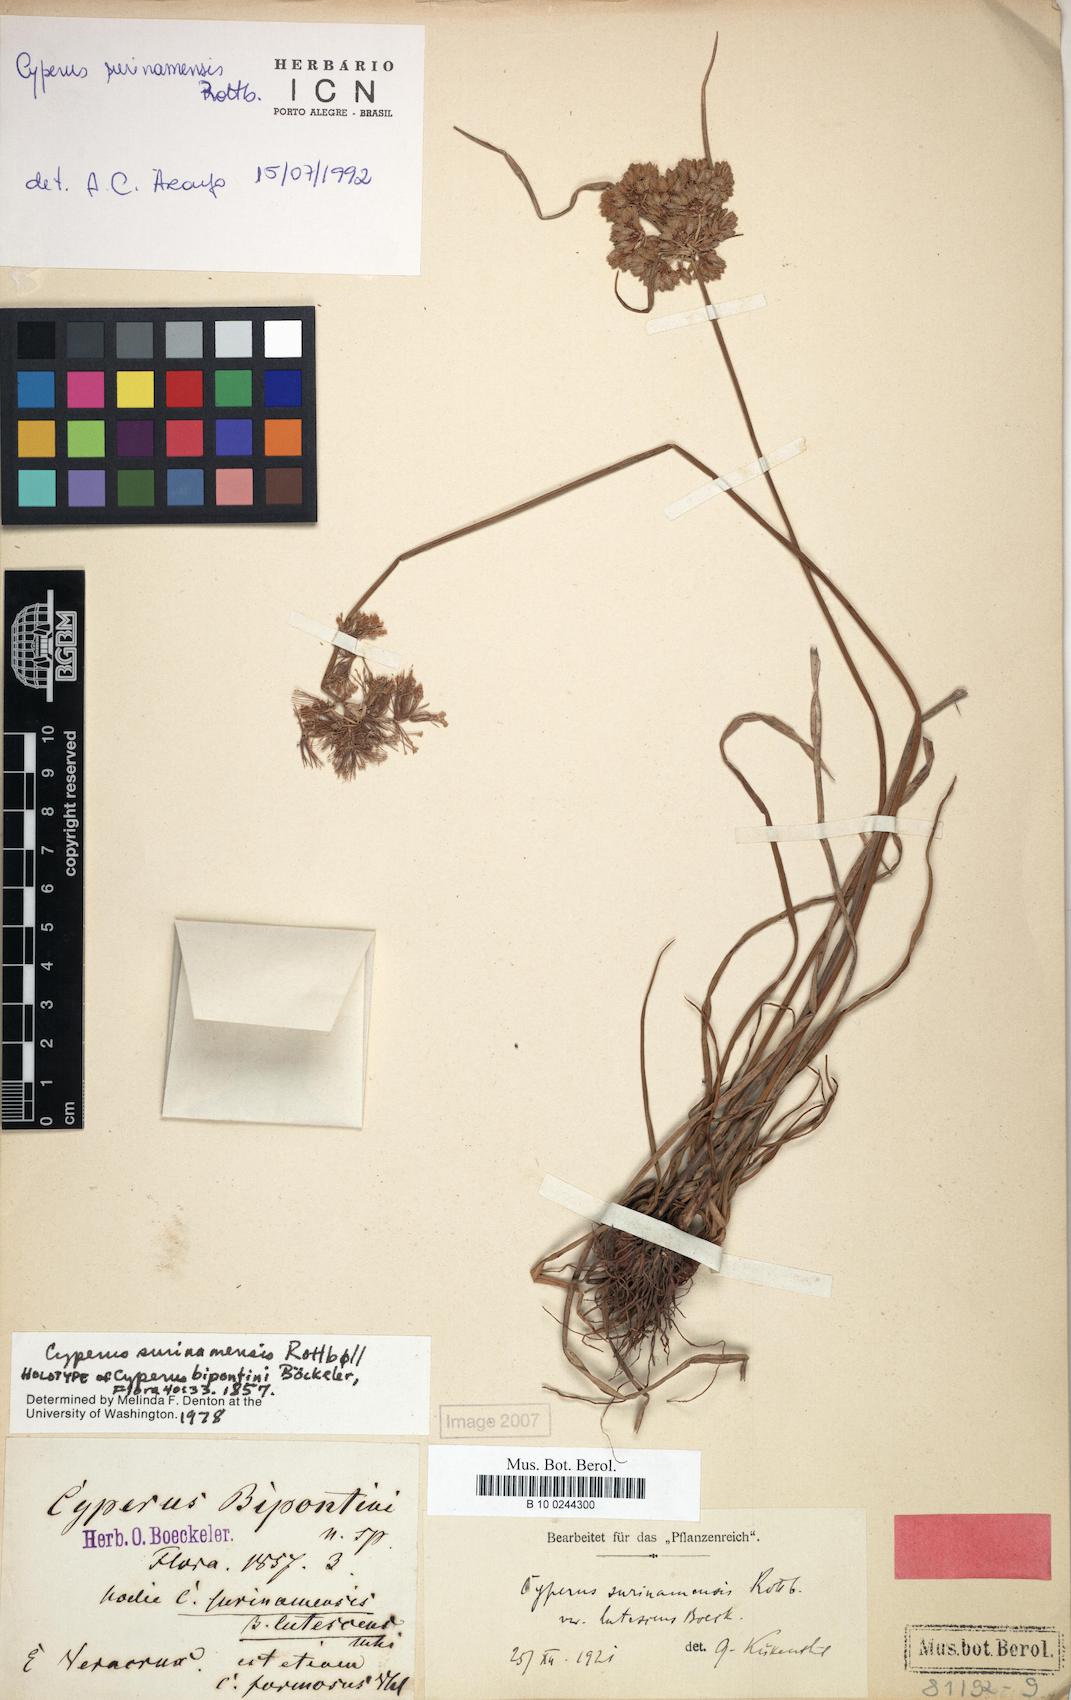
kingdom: Plantae
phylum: Tracheophyta
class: Liliopsida
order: Poales
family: Cyperaceae
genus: Cyperus
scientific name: Cyperus surinamensis
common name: Tropical flat sedge
